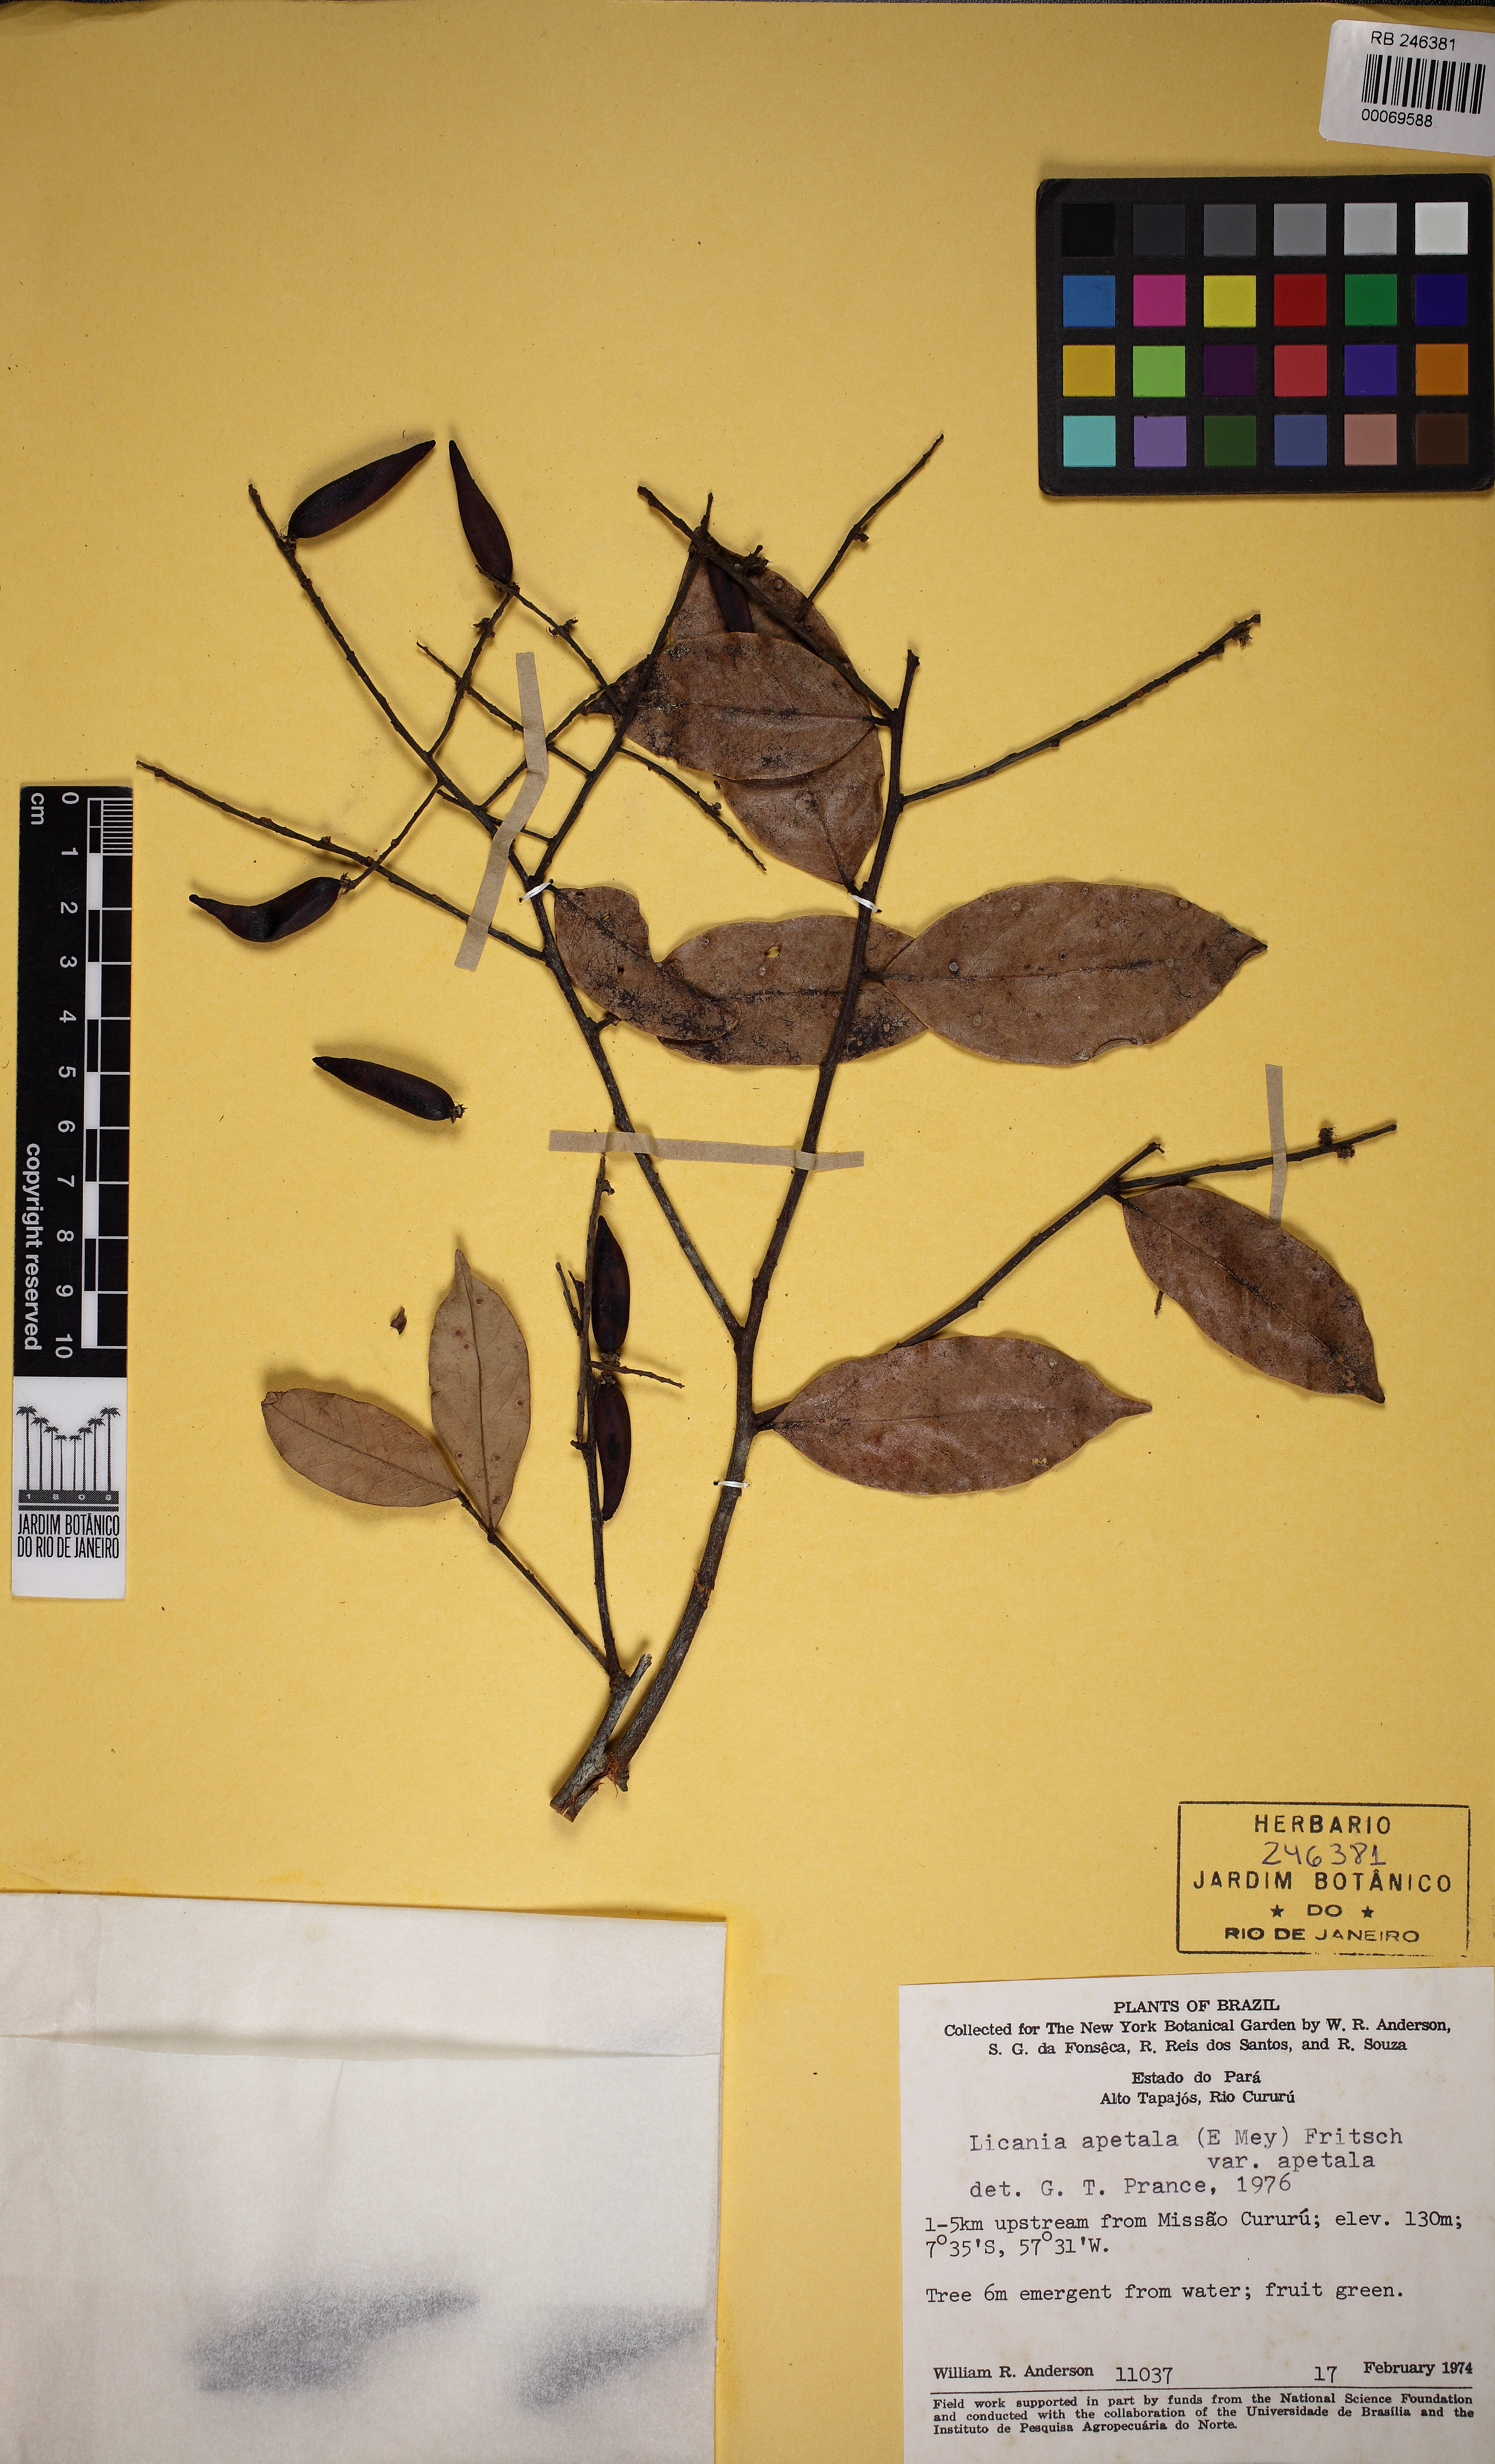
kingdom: Plantae
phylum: Tracheophyta
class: Magnoliopsida
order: Malpighiales
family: Chrysobalanaceae
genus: Leptobalanus
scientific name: Leptobalanus apetalus
